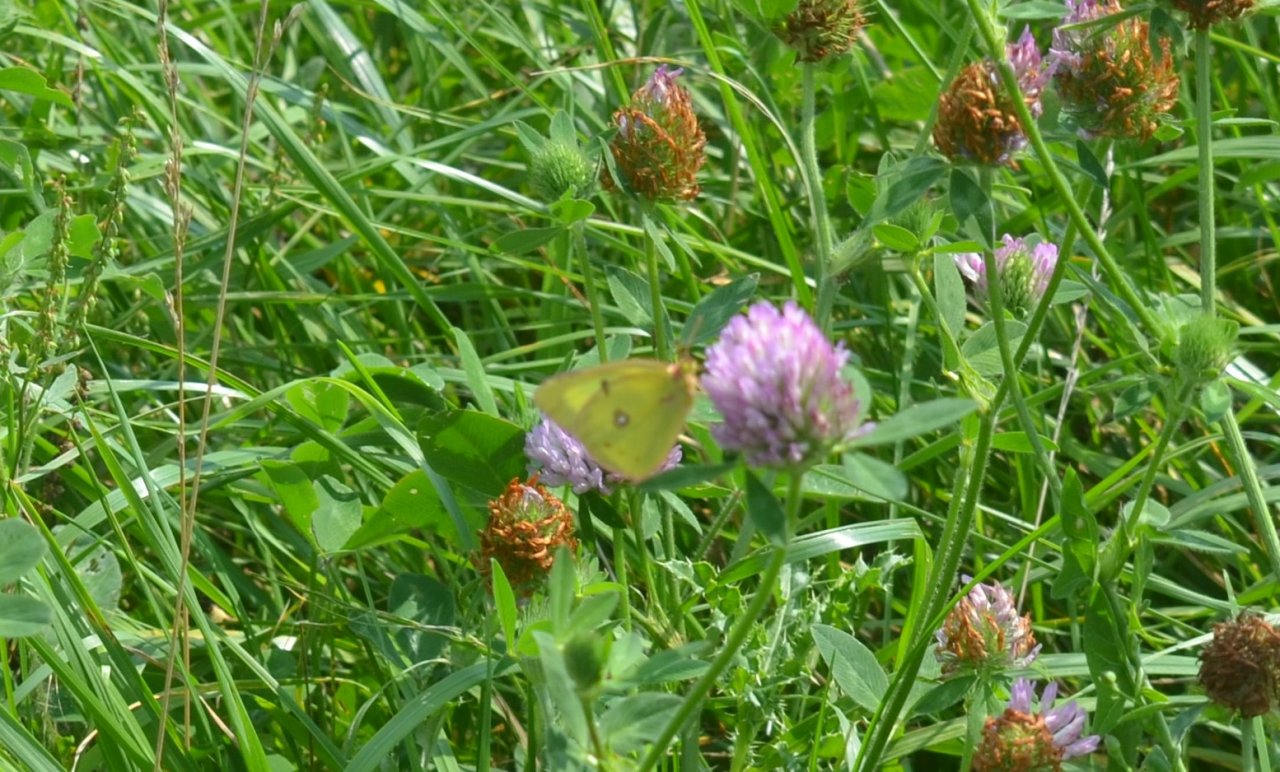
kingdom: Animalia
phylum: Arthropoda
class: Insecta
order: Lepidoptera
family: Pieridae
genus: Colias
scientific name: Colias philodice
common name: Clouded Sulphur
